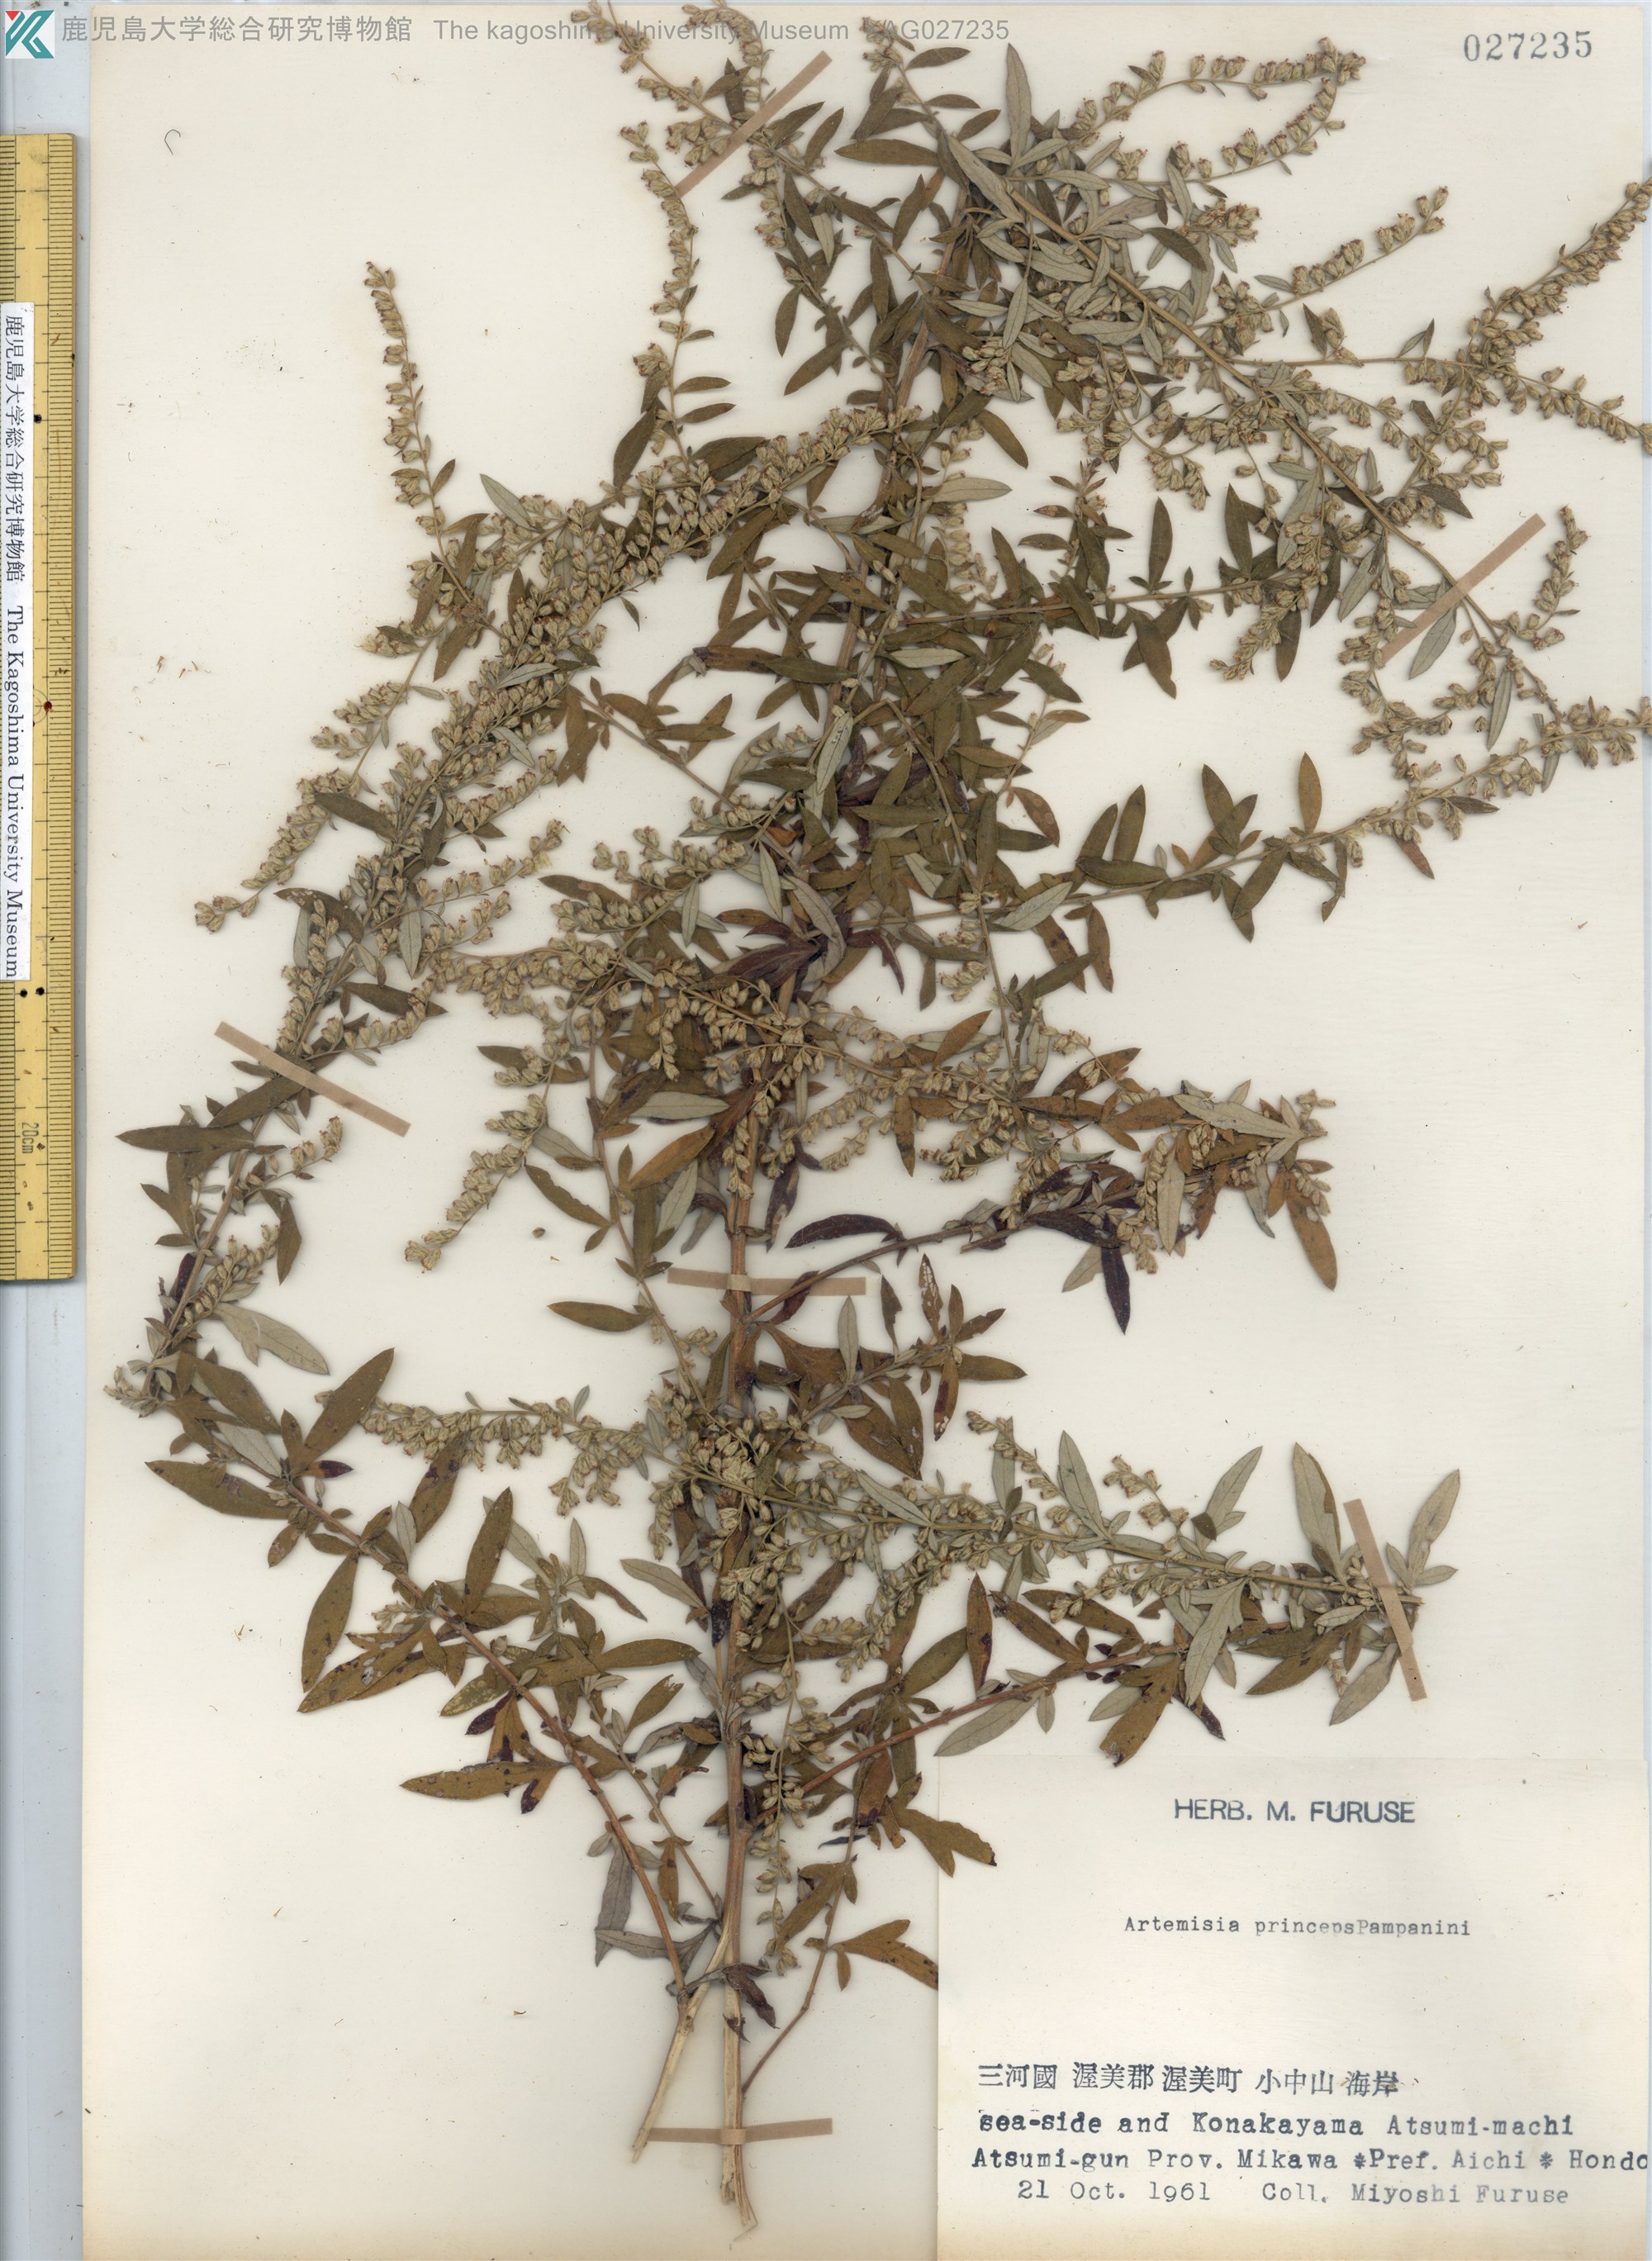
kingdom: Plantae
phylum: Tracheophyta
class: Magnoliopsida
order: Asterales
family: Asteraceae
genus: Artemisia
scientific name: Artemisia princeps
